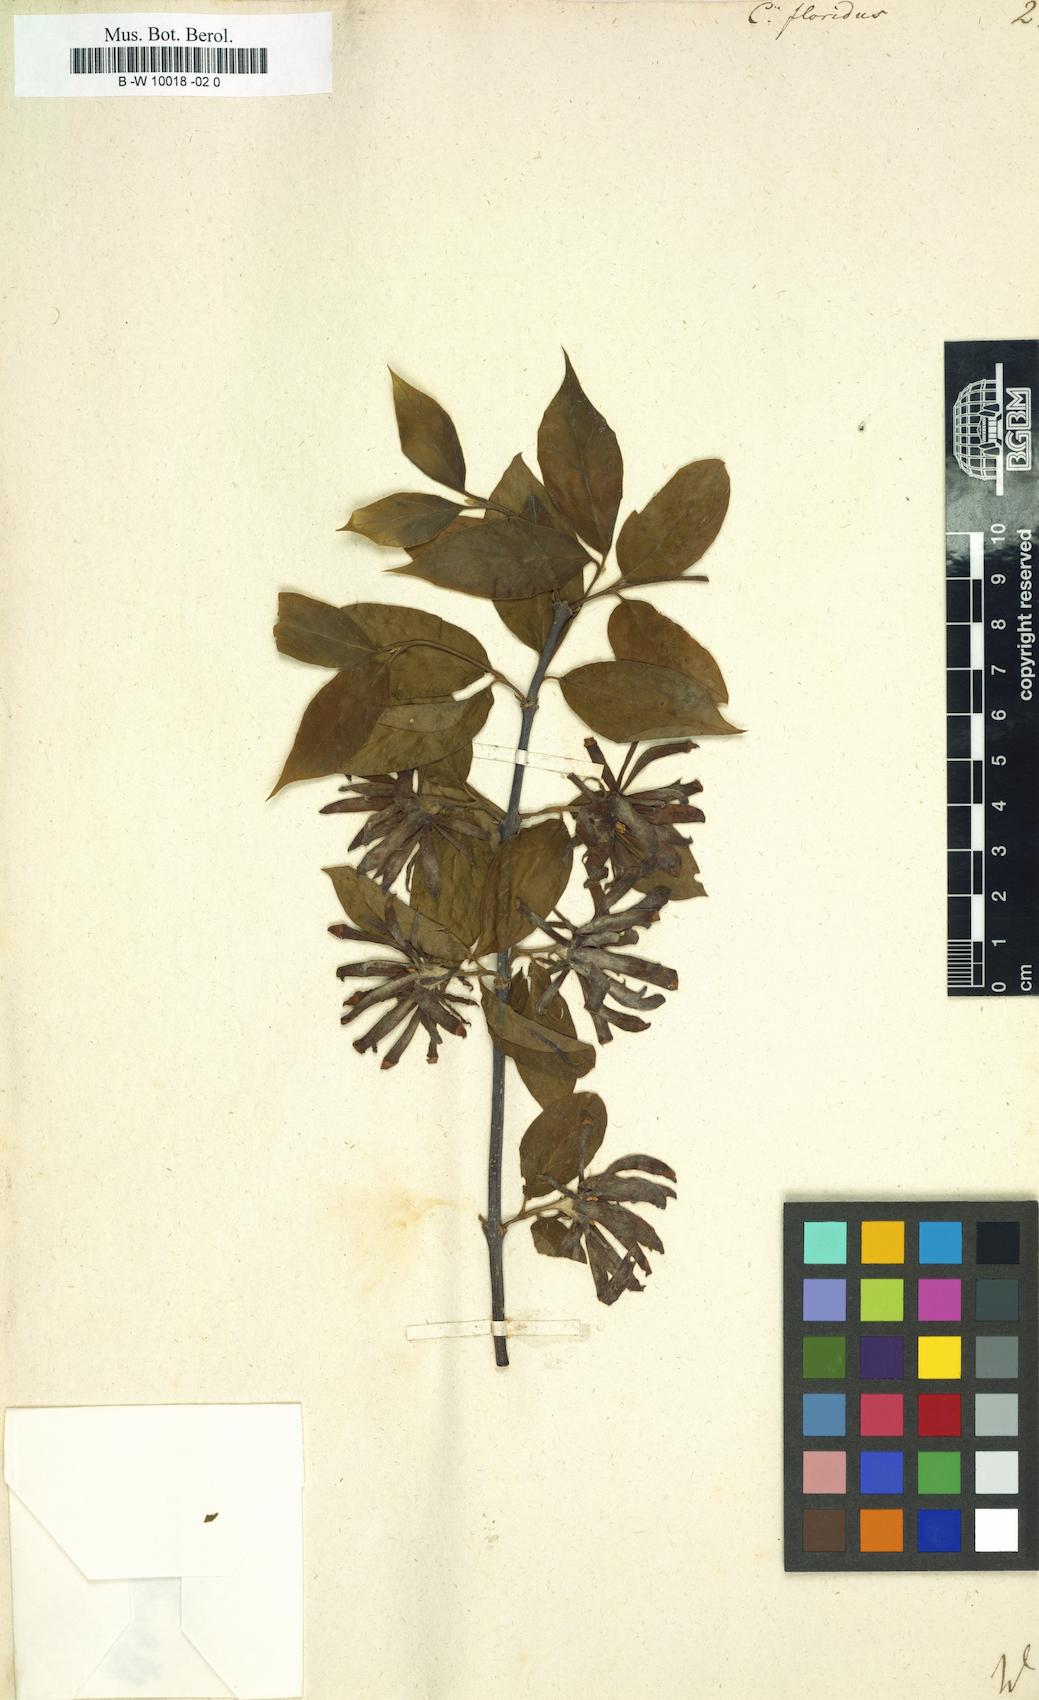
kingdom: Plantae
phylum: Tracheophyta
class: Magnoliopsida
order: Laurales
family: Calycanthaceae
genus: Calycanthus
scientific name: Calycanthus floridus
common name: Carolina-allspice
